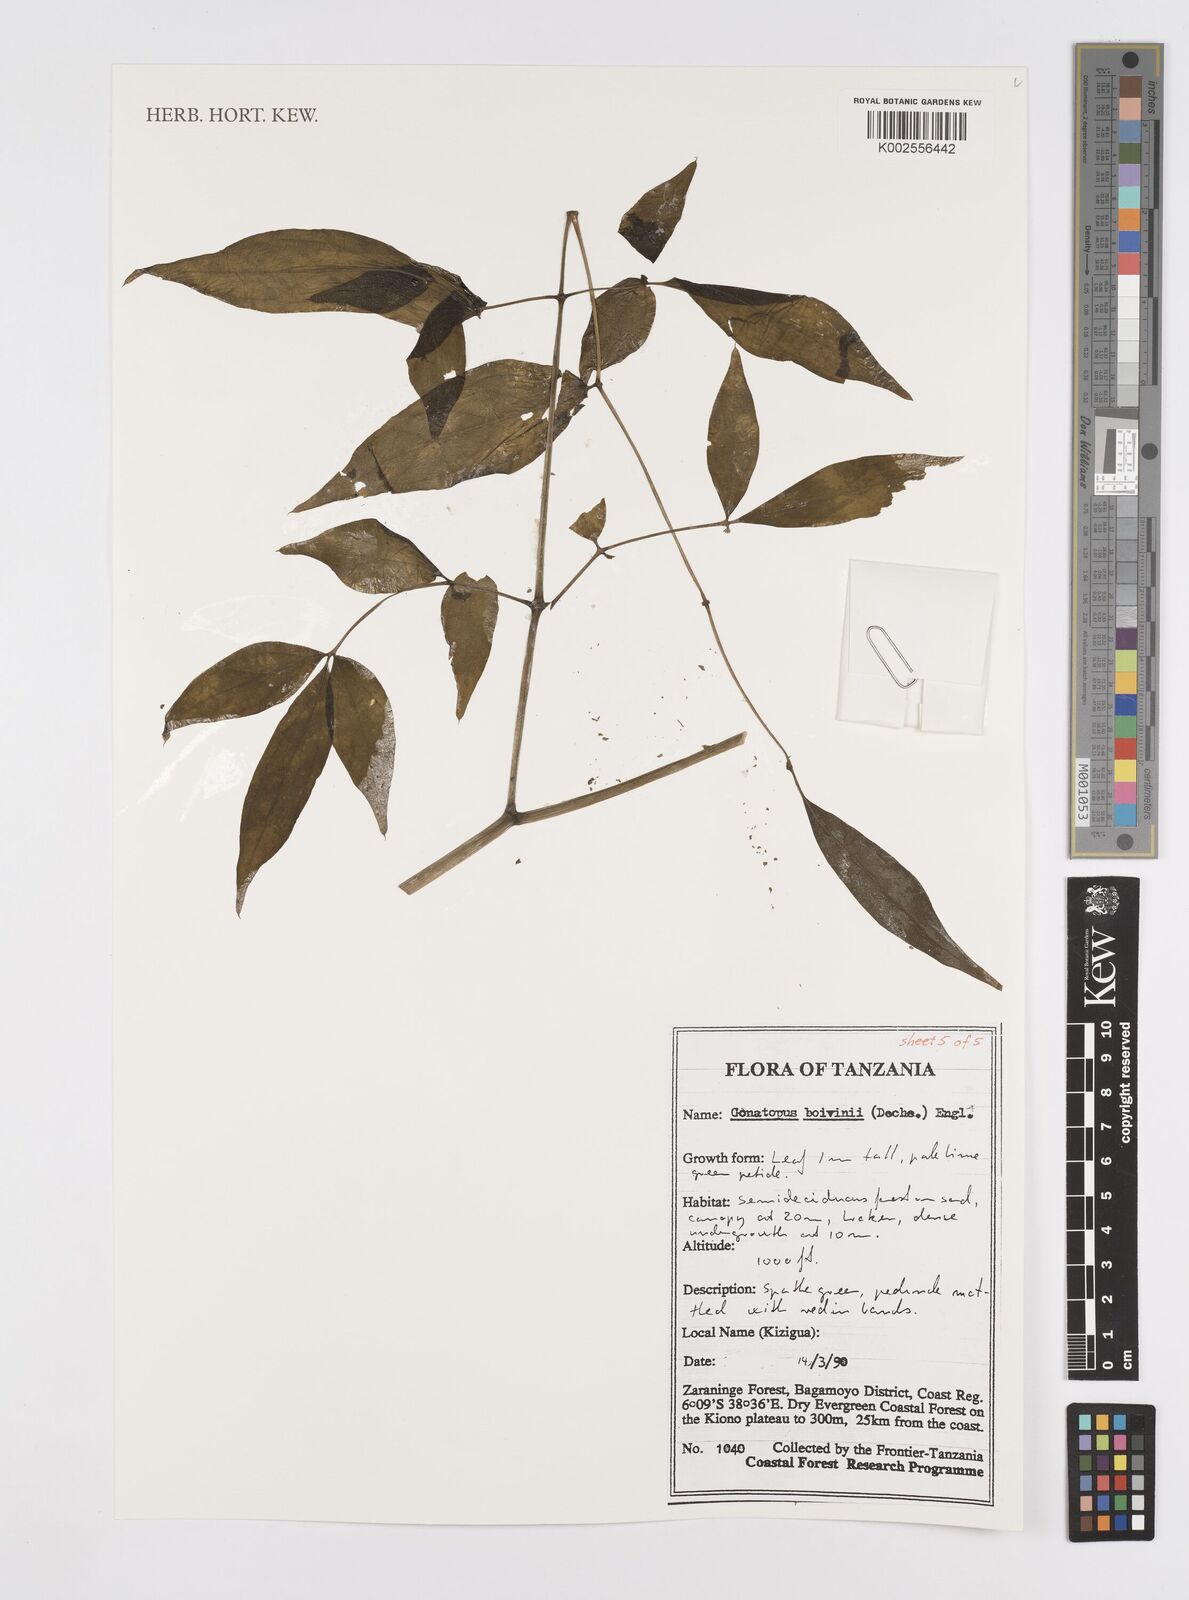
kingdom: Plantae
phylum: Tracheophyta
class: Liliopsida
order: Alismatales
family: Araceae
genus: Gonatopus
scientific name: Gonatopus boivinii
